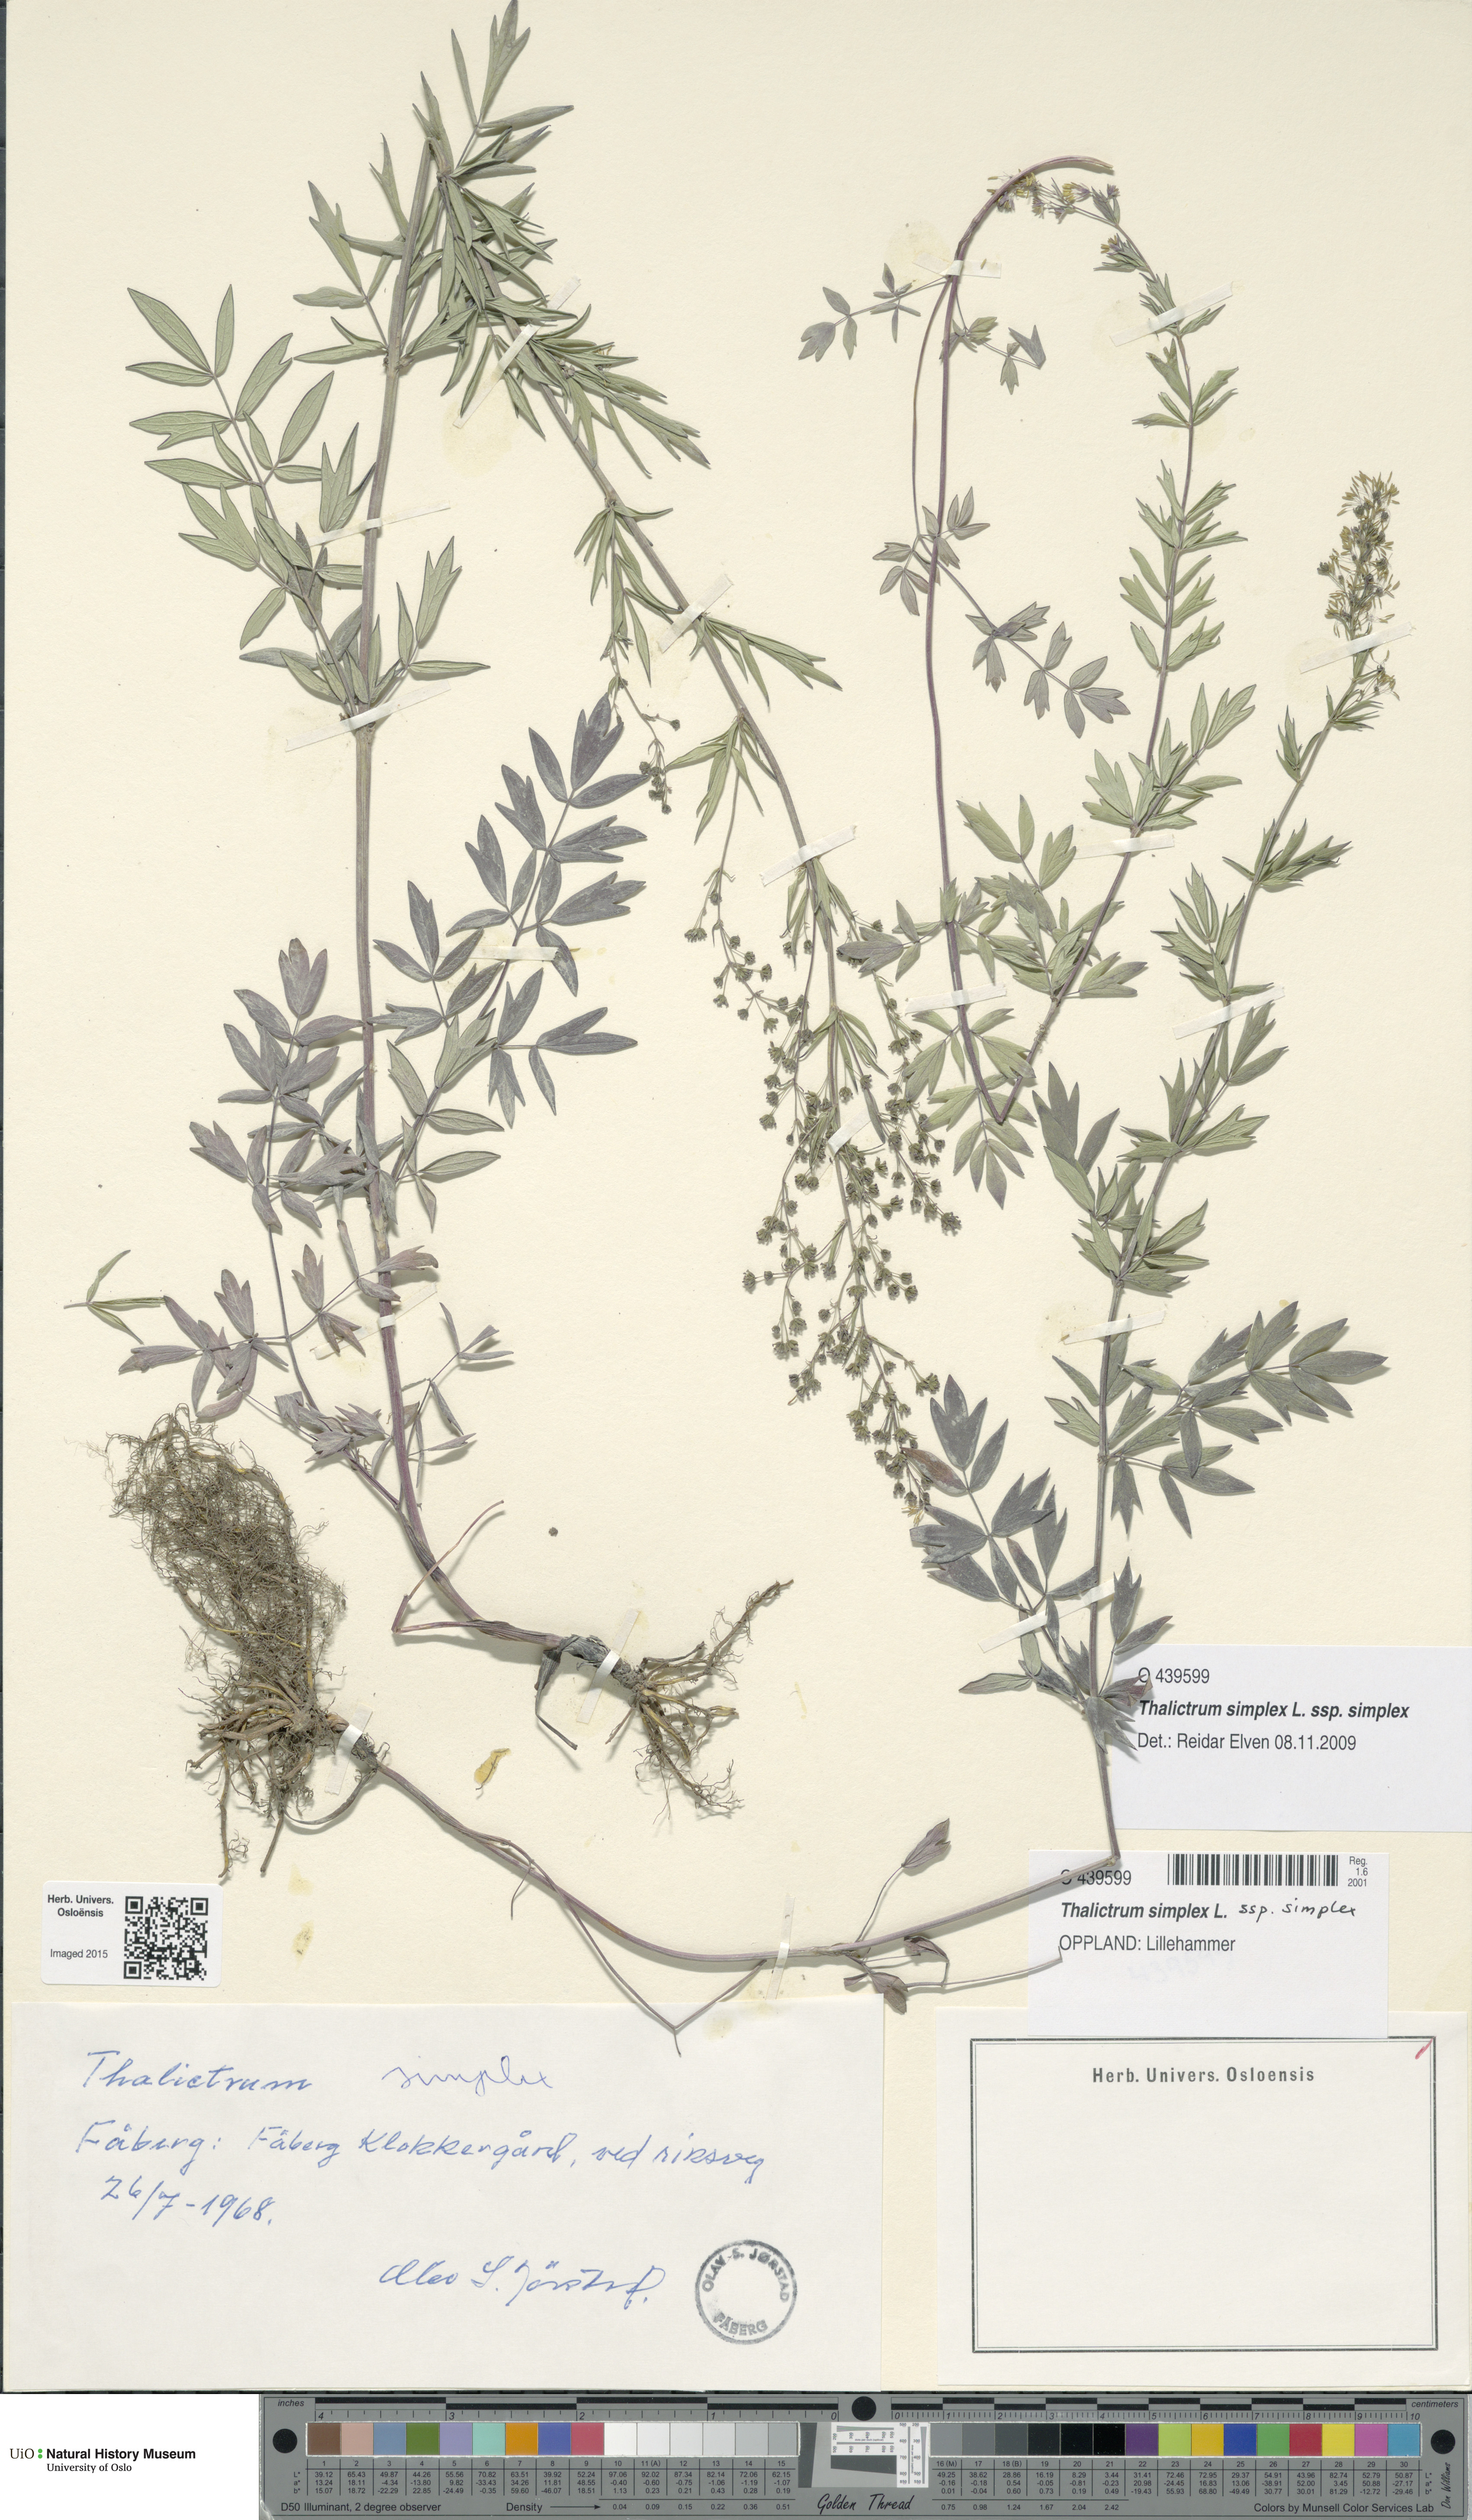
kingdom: Plantae
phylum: Tracheophyta
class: Magnoliopsida
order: Ranunculales
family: Ranunculaceae
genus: Thalictrum
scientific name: Thalictrum simplex
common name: Small meadow-rue
